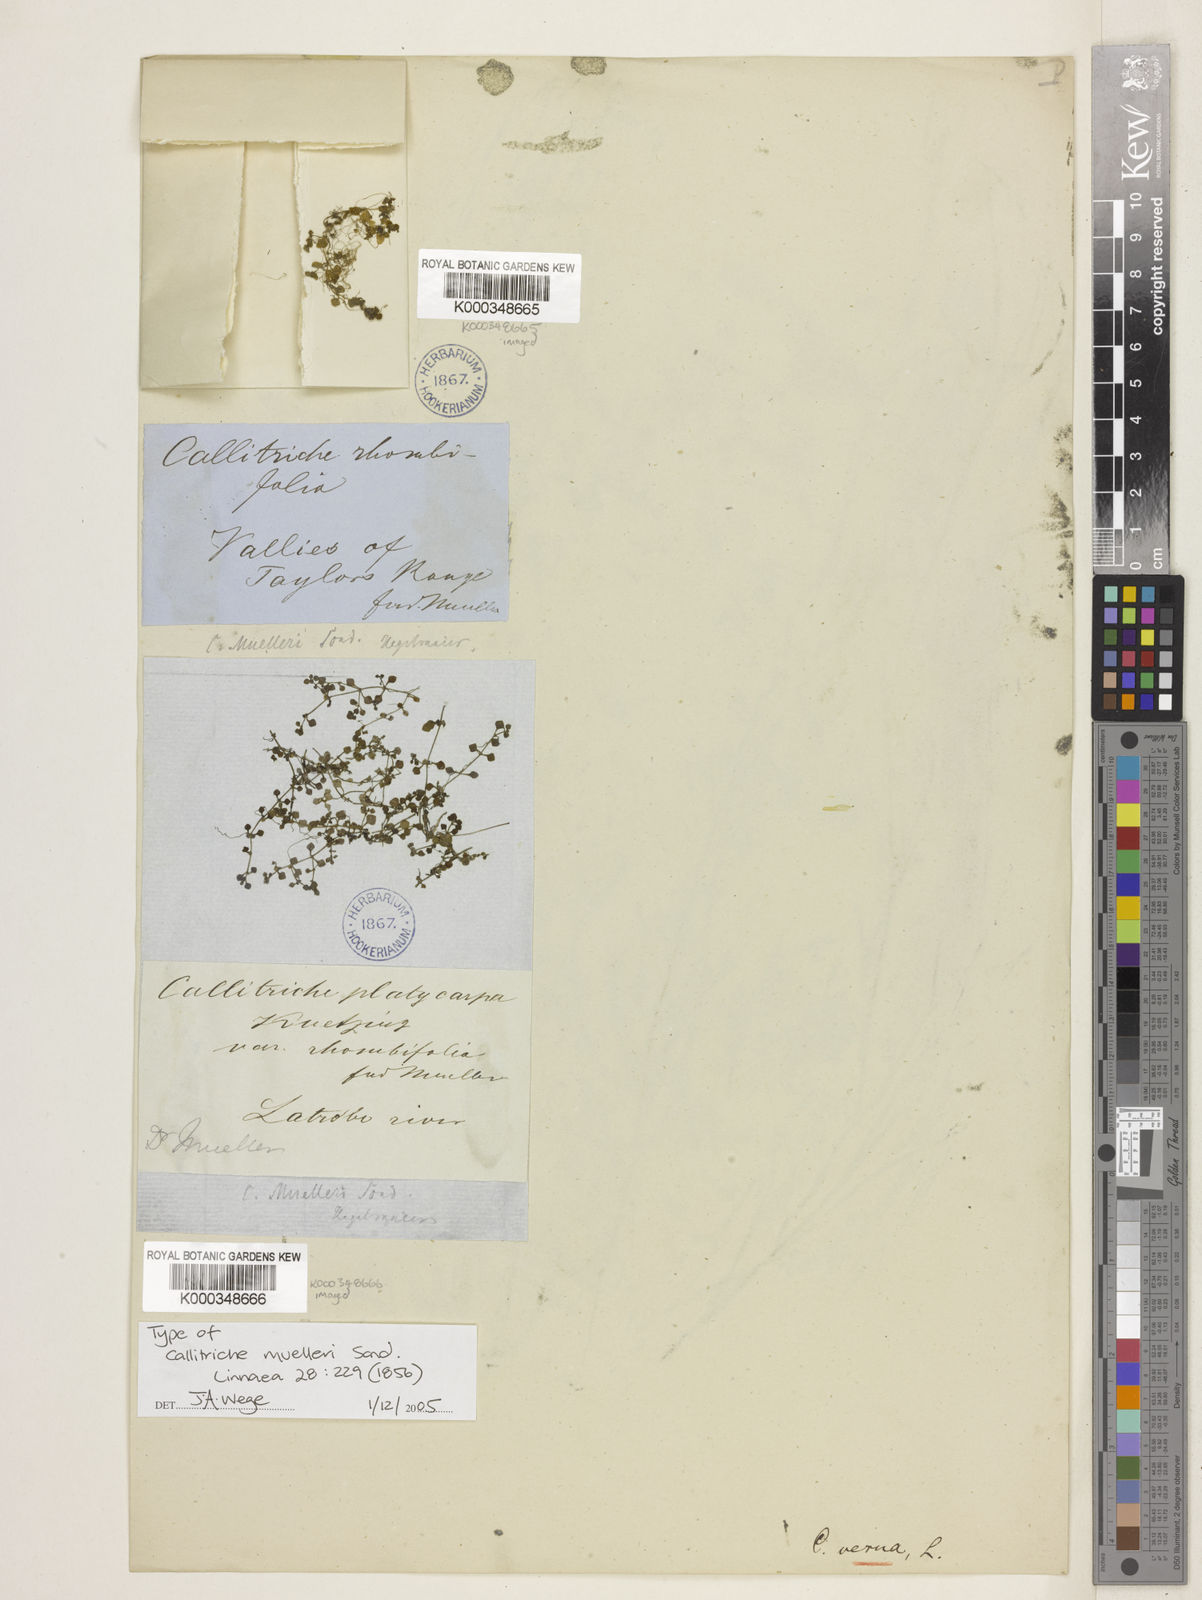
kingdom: Plantae
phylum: Tracheophyta
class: Magnoliopsida
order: Lamiales
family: Plantaginaceae
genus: Callitriche
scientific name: Callitriche muelleri
